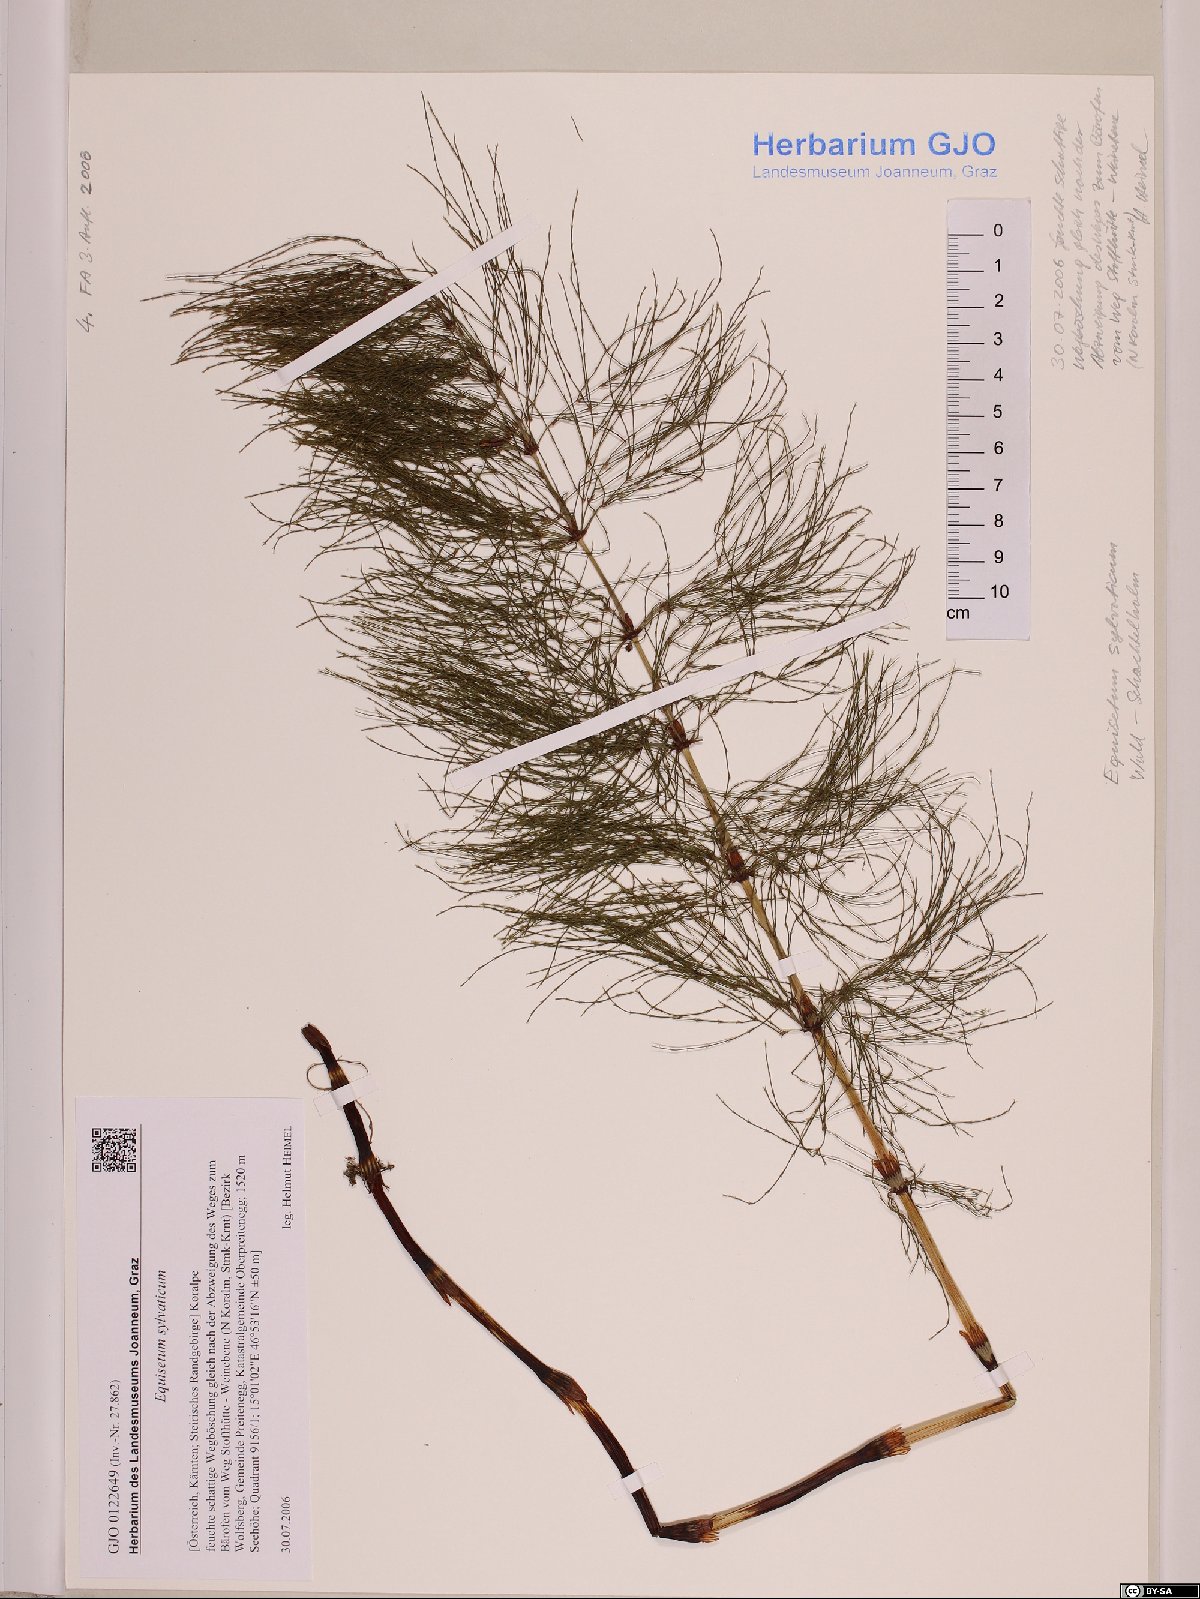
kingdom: Plantae
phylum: Tracheophyta
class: Polypodiopsida
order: Equisetales
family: Equisetaceae
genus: Equisetum
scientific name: Equisetum sylvaticum
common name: Wood horsetail
